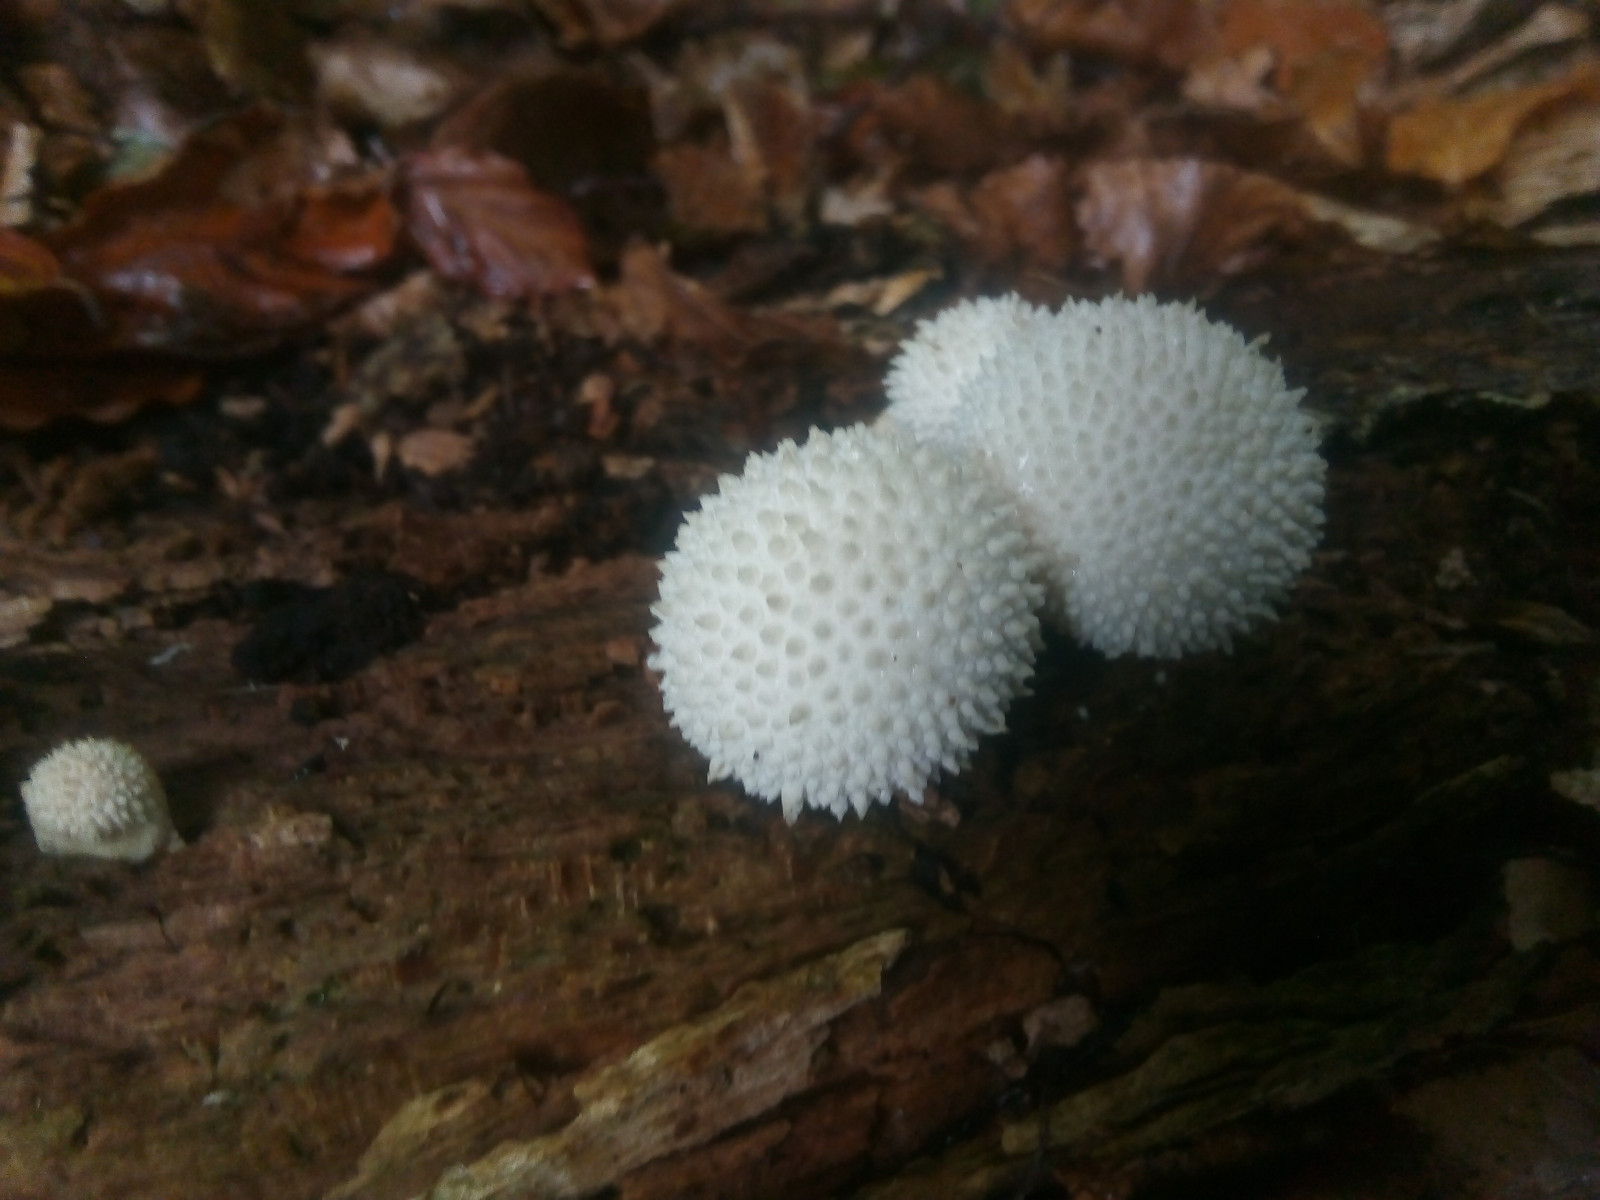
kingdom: Fungi
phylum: Basidiomycota
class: Agaricomycetes
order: Agaricales
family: Lycoperdaceae
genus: Lycoperdon
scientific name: Lycoperdon perlatum
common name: krystal-støvbold
